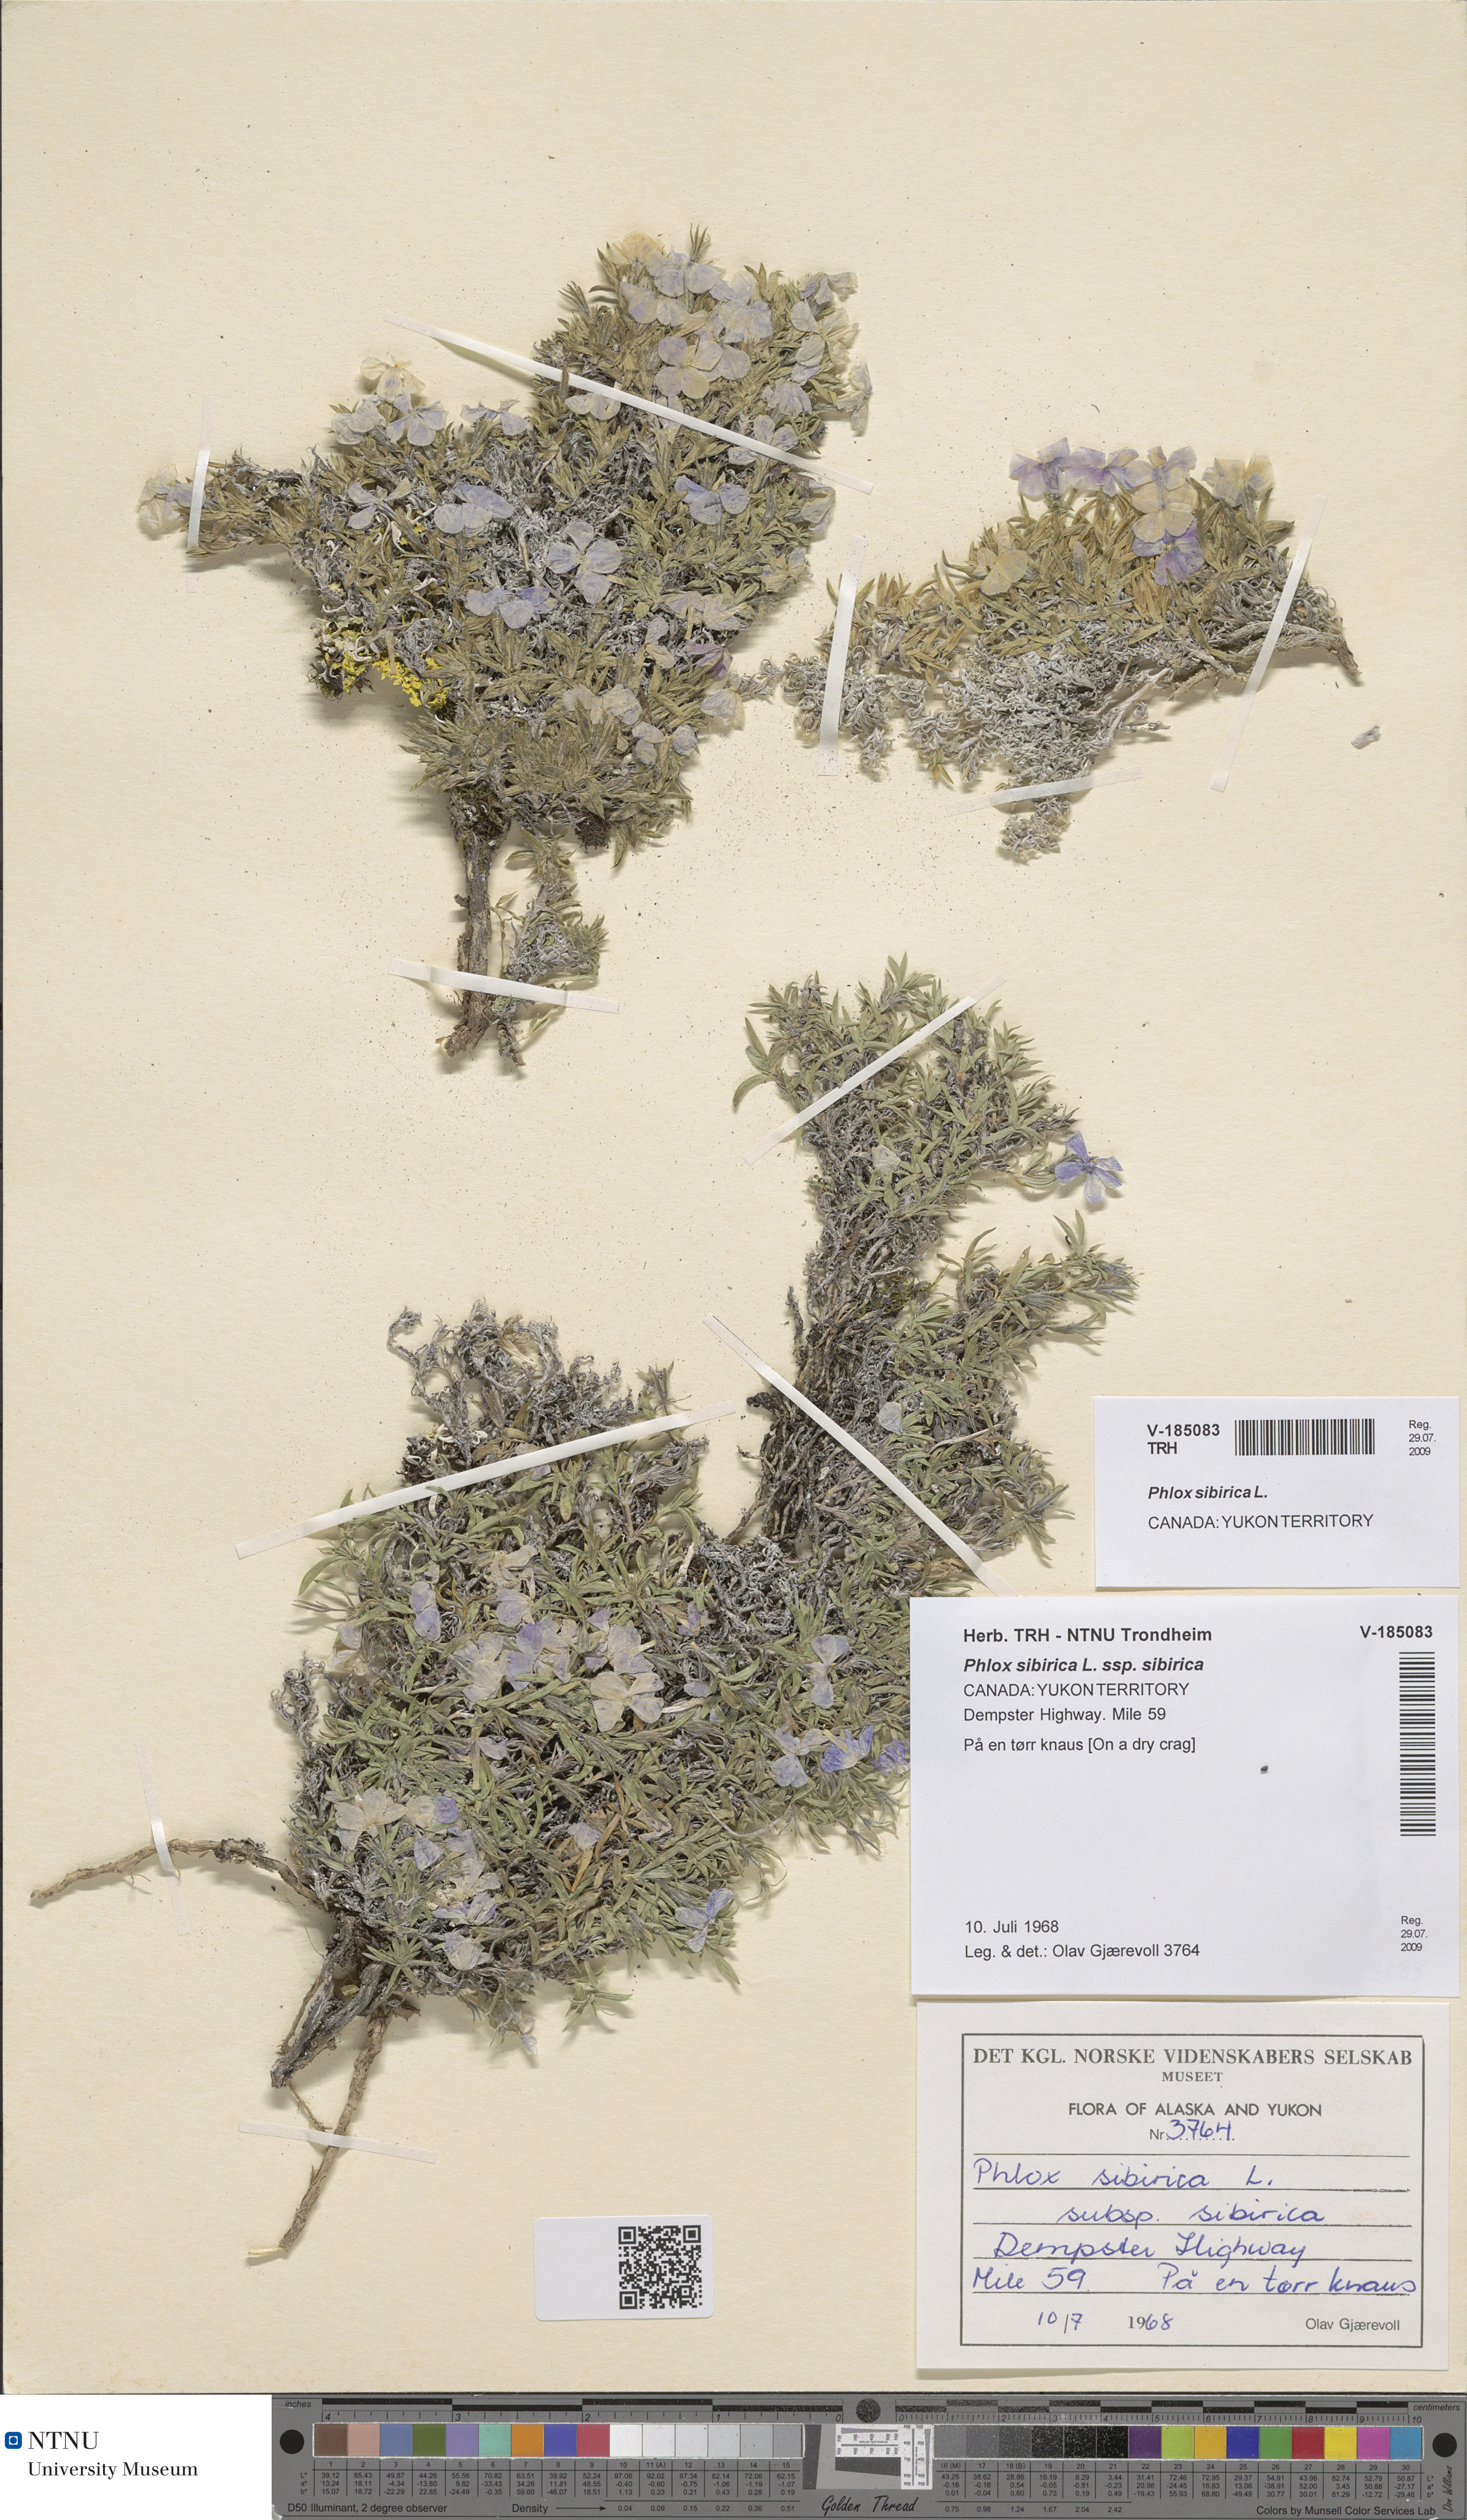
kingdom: Plantae
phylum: Tracheophyta
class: Magnoliopsida
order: Ericales
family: Polemoniaceae
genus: Phlox
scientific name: Phlox sibirica
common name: Siberian phlox
